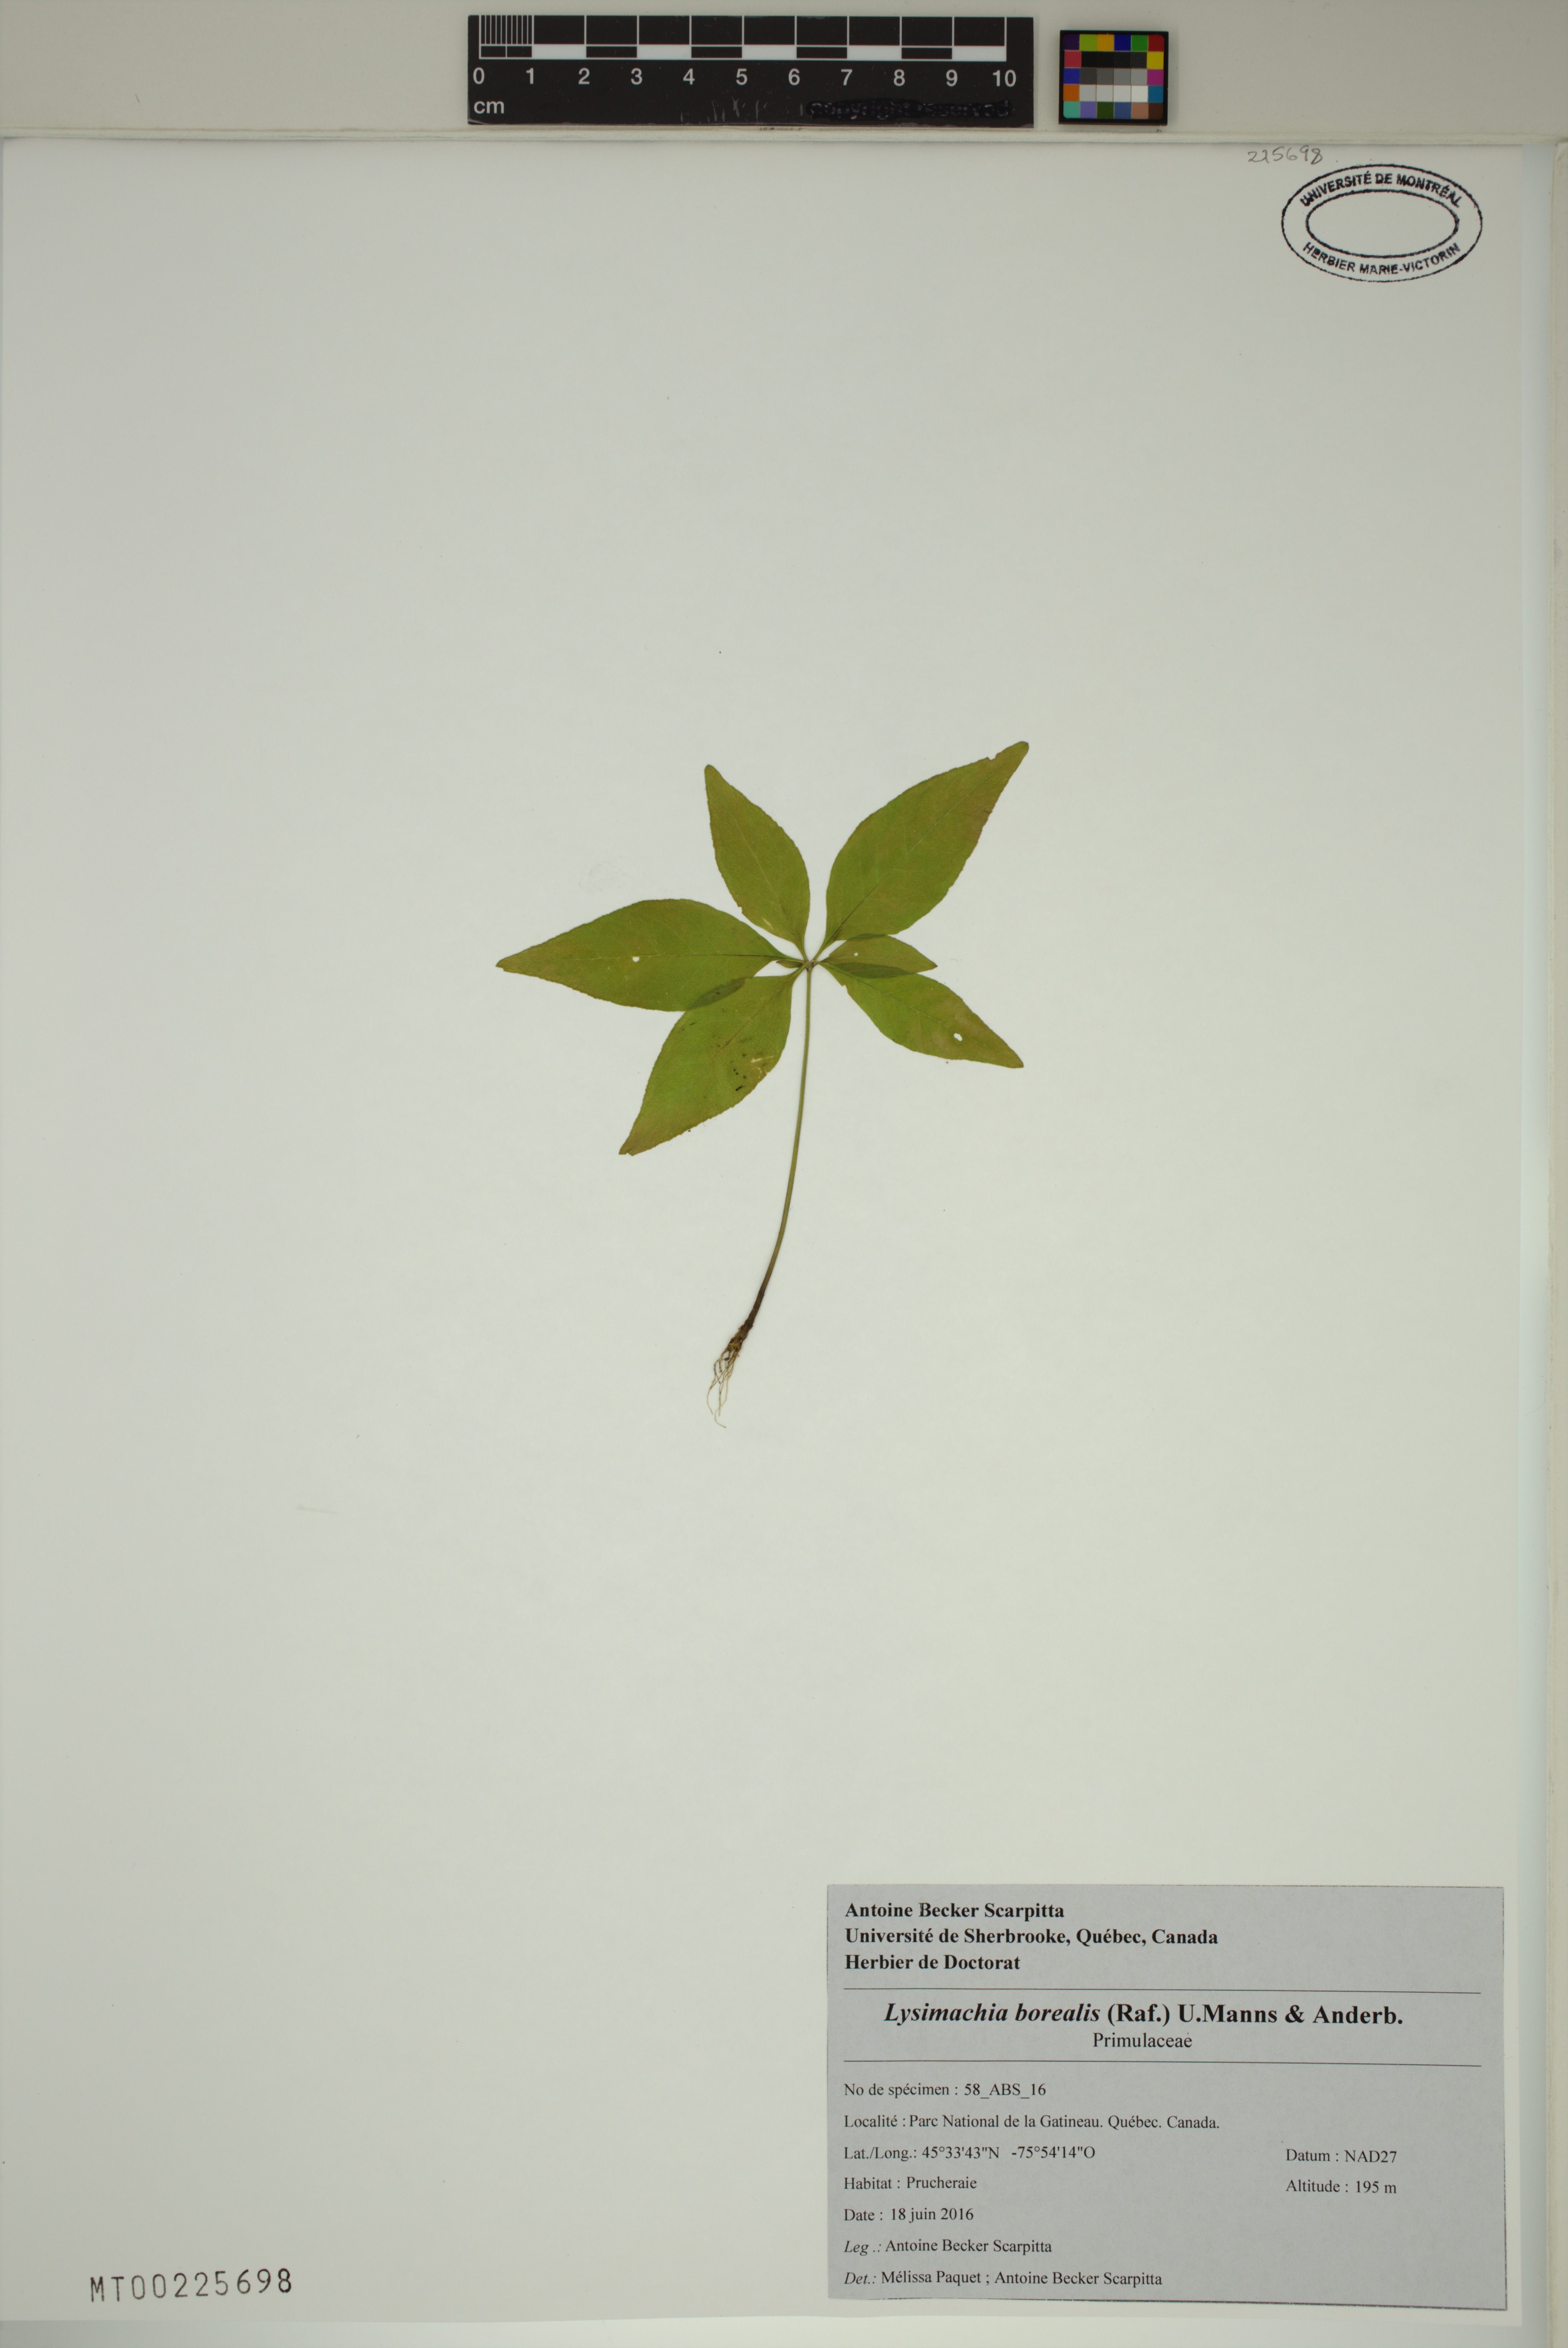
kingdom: Plantae
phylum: Tracheophyta
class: Magnoliopsida
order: Ericales
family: Primulaceae
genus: Lysimachia
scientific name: Lysimachia borealis
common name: American starflower
